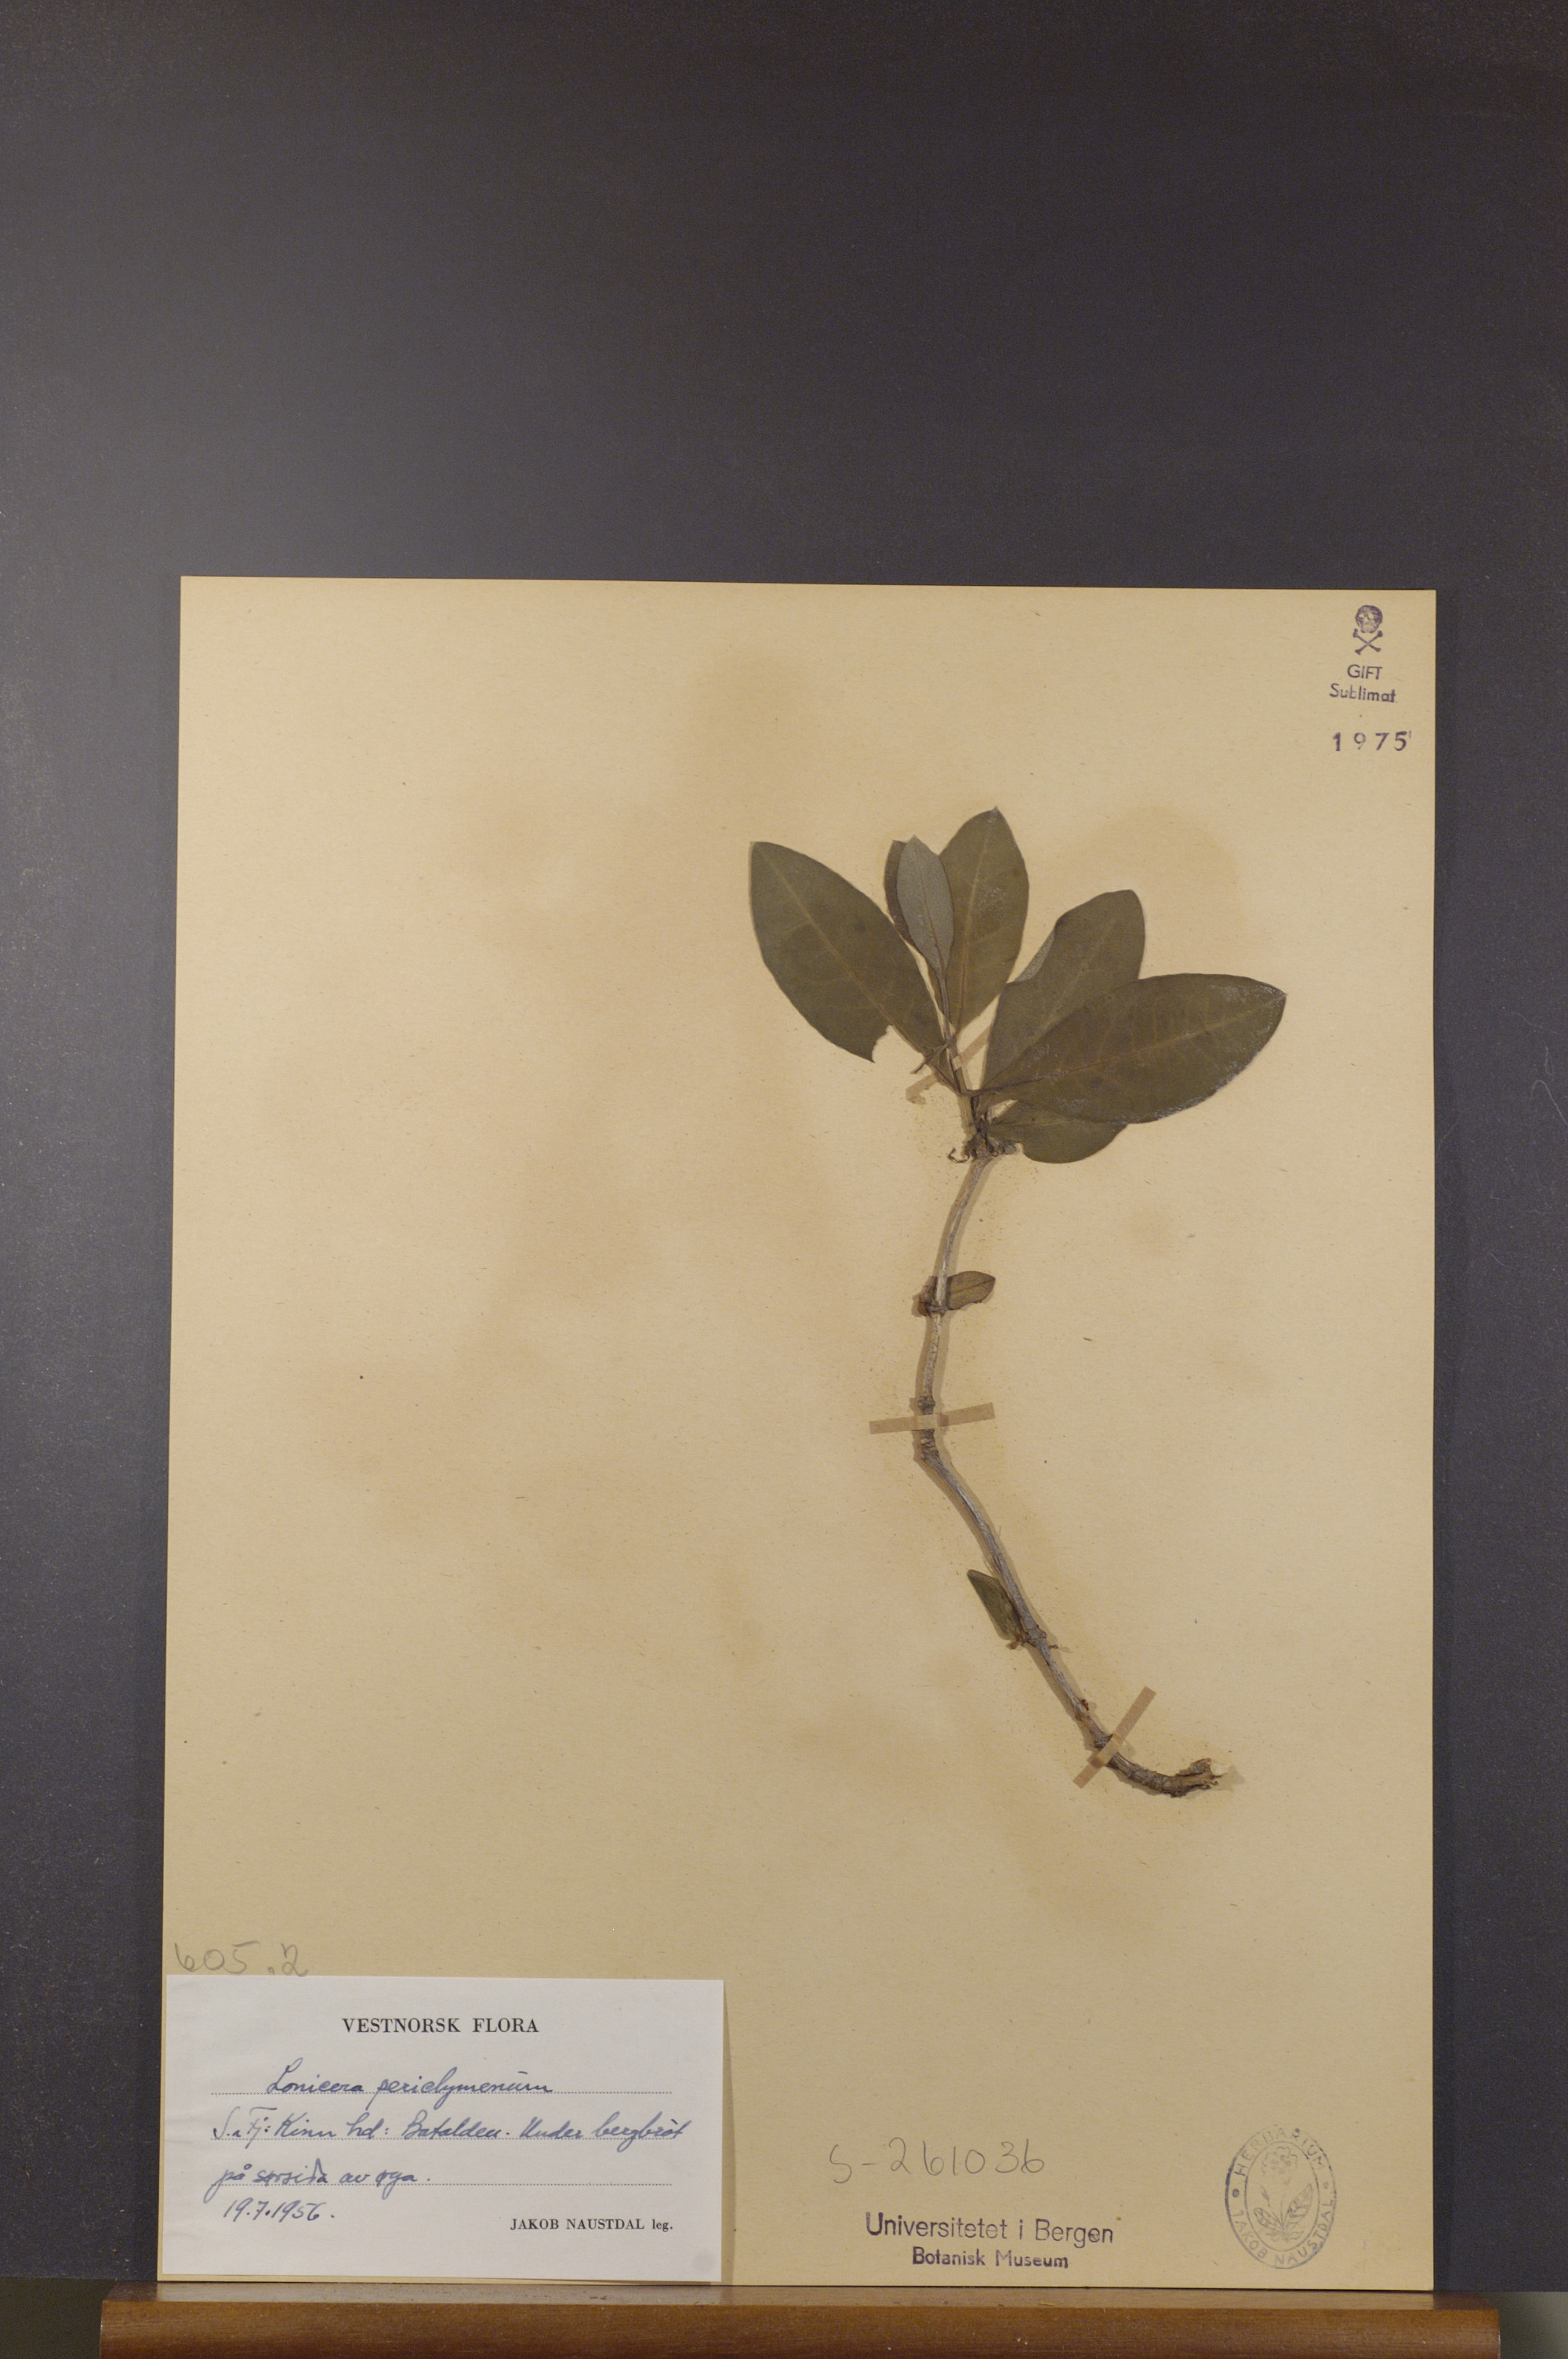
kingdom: Plantae
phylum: Tracheophyta
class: Magnoliopsida
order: Dipsacales
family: Caprifoliaceae
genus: Lonicera
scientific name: Lonicera periclymenum
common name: European honeysuckle
